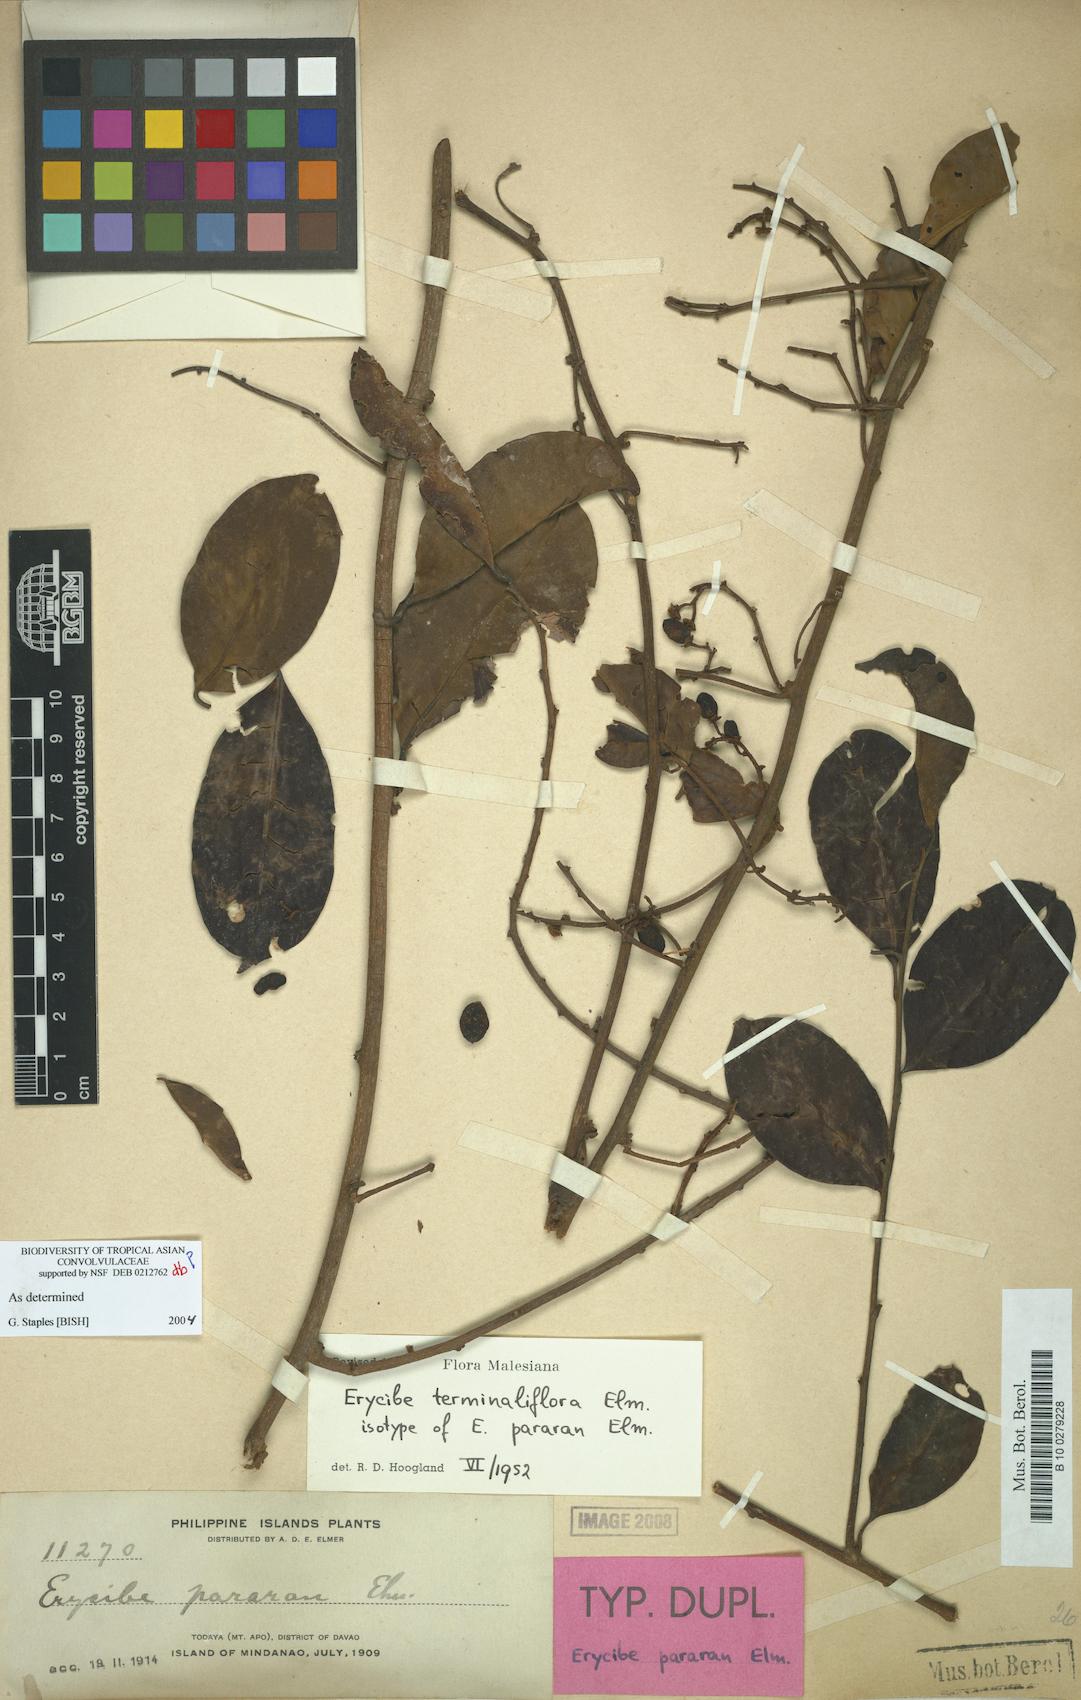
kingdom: Plantae
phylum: Tracheophyta
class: Magnoliopsida
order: Solanales
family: Convolvulaceae
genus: Erycibe
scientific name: Erycibe terminaliflora
